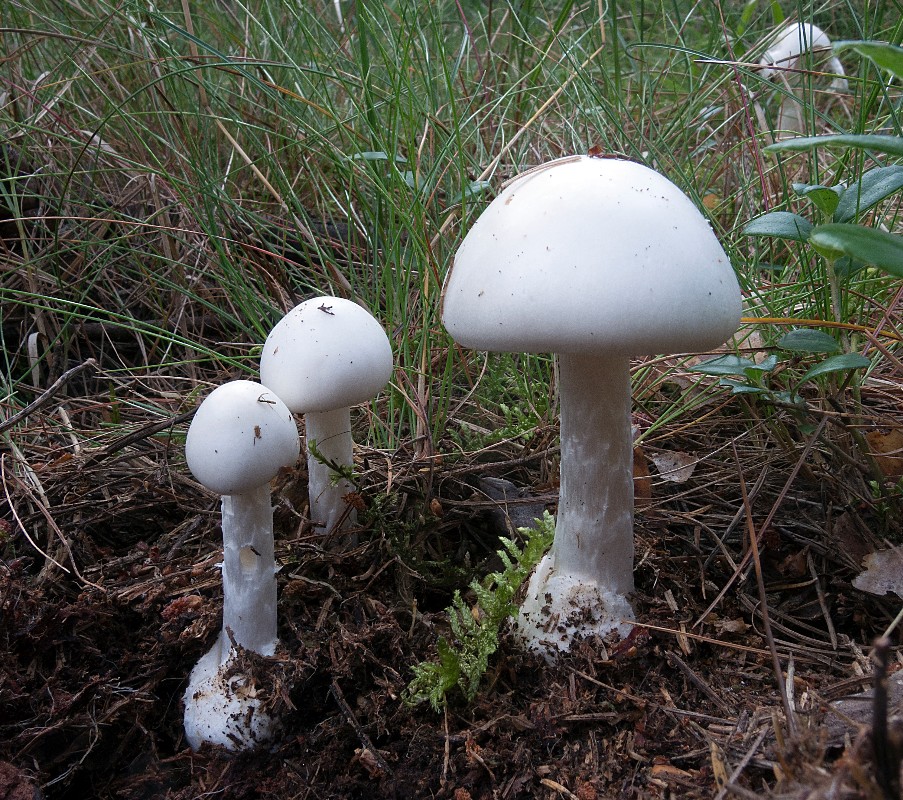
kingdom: Fungi
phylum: Basidiomycota
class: Agaricomycetes
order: Agaricales
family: Amanitaceae
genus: Amanita
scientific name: Amanita virosa
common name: snehvid fluesvamp
